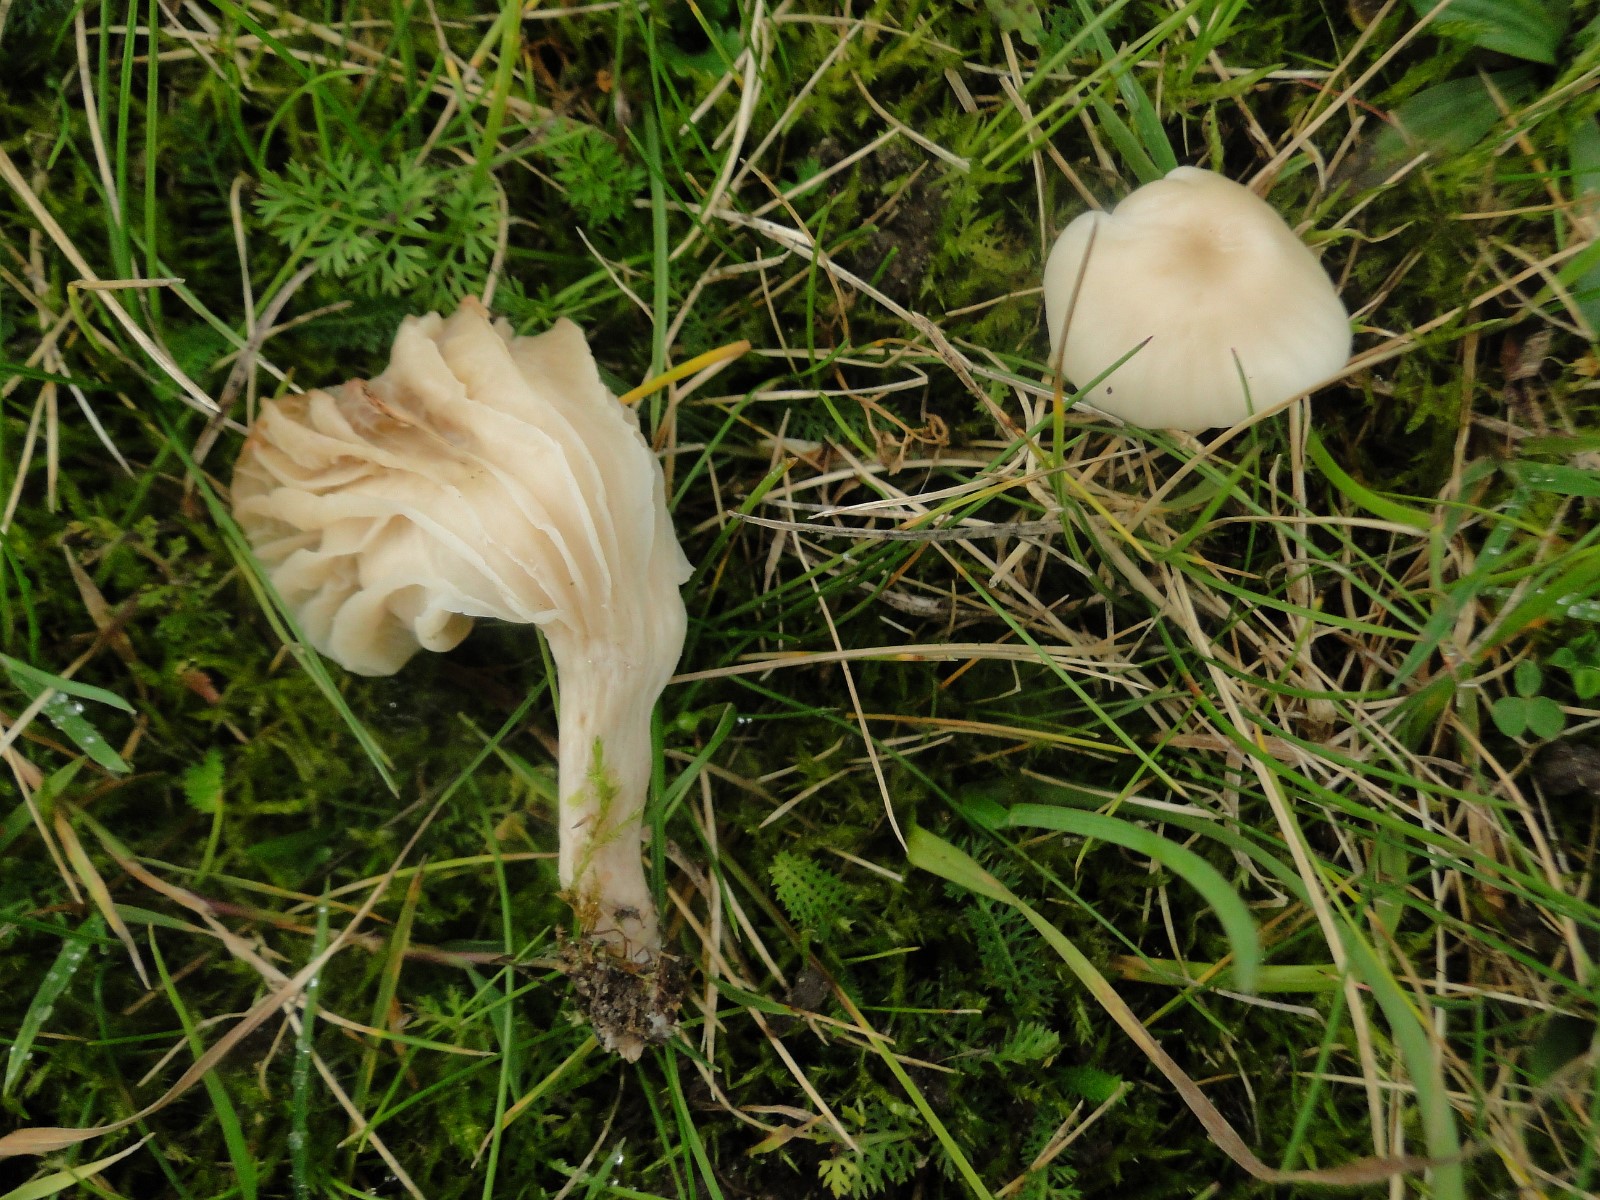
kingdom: Fungi
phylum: Basidiomycota
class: Agaricomycetes
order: Agaricales
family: Hygrophoraceae
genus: Cuphophyllus
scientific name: Cuphophyllus virgineus
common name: snehvid vokshat
